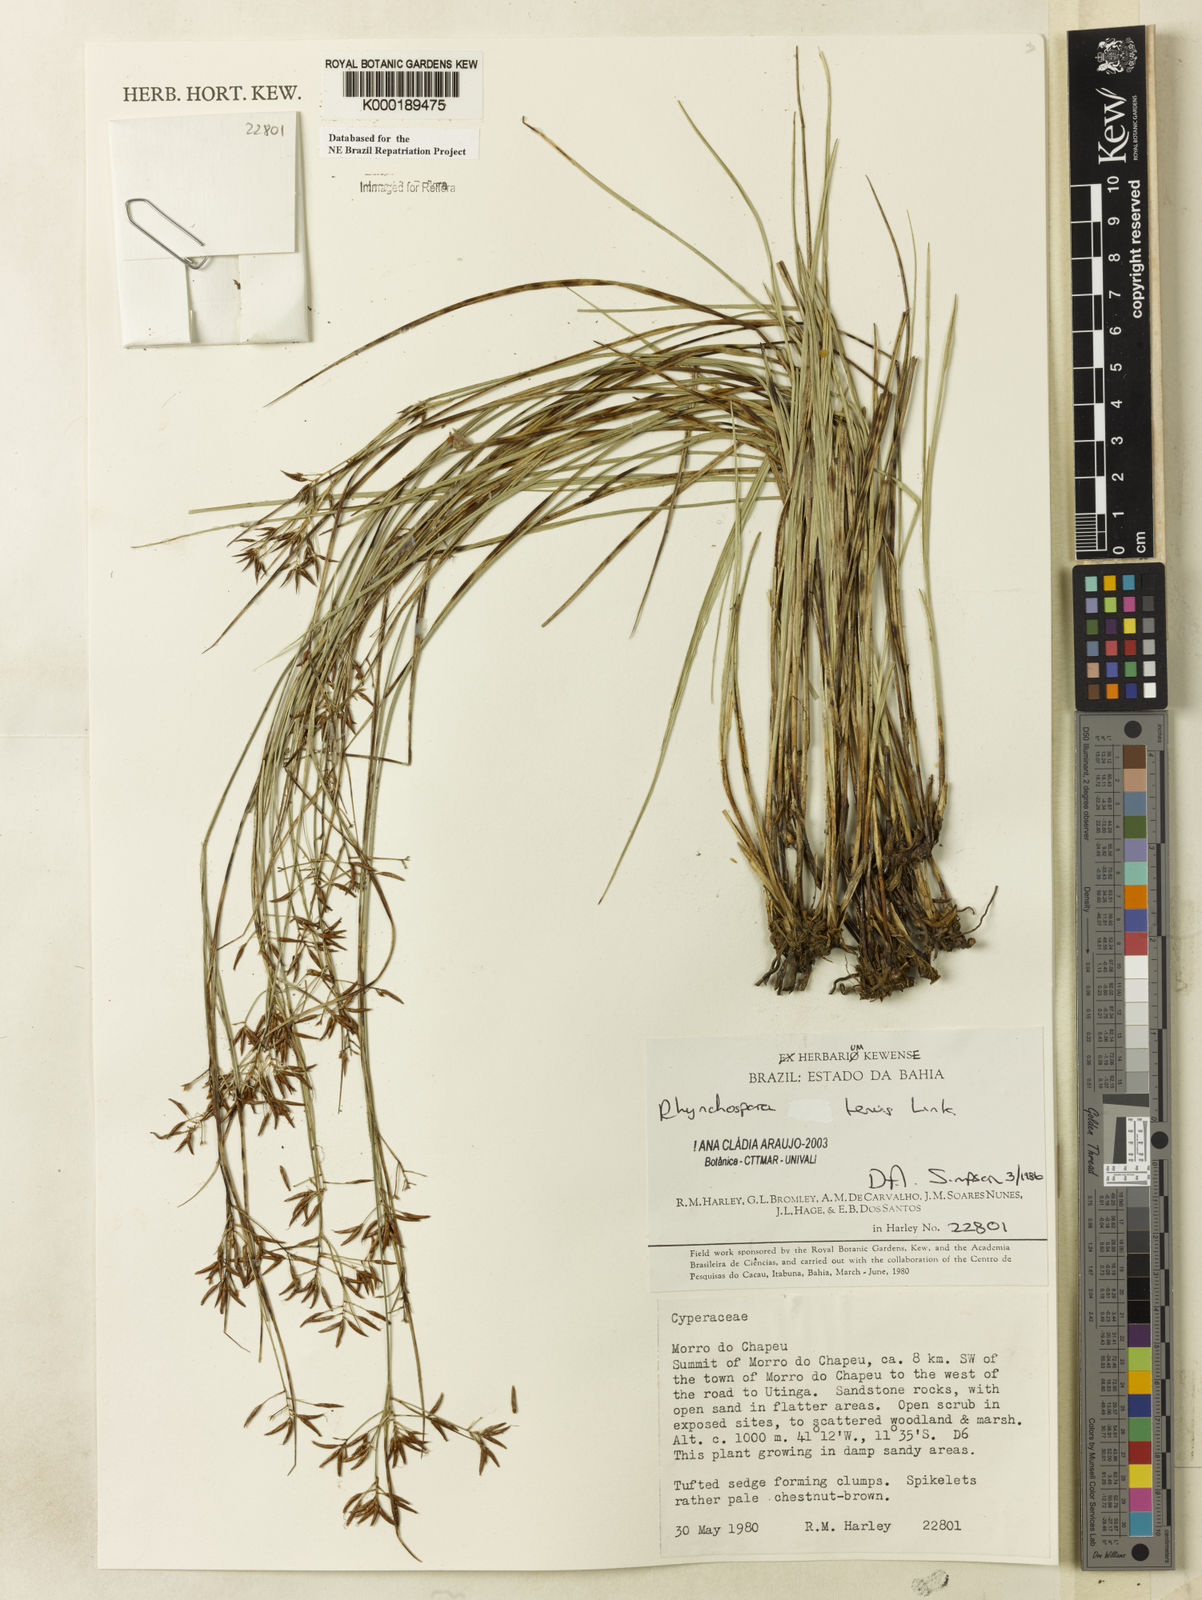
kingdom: Plantae
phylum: Tracheophyta
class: Liliopsida
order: Poales
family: Cyperaceae
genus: Rhynchospora
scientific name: Rhynchospora tenuis
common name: Quill beaksedge
